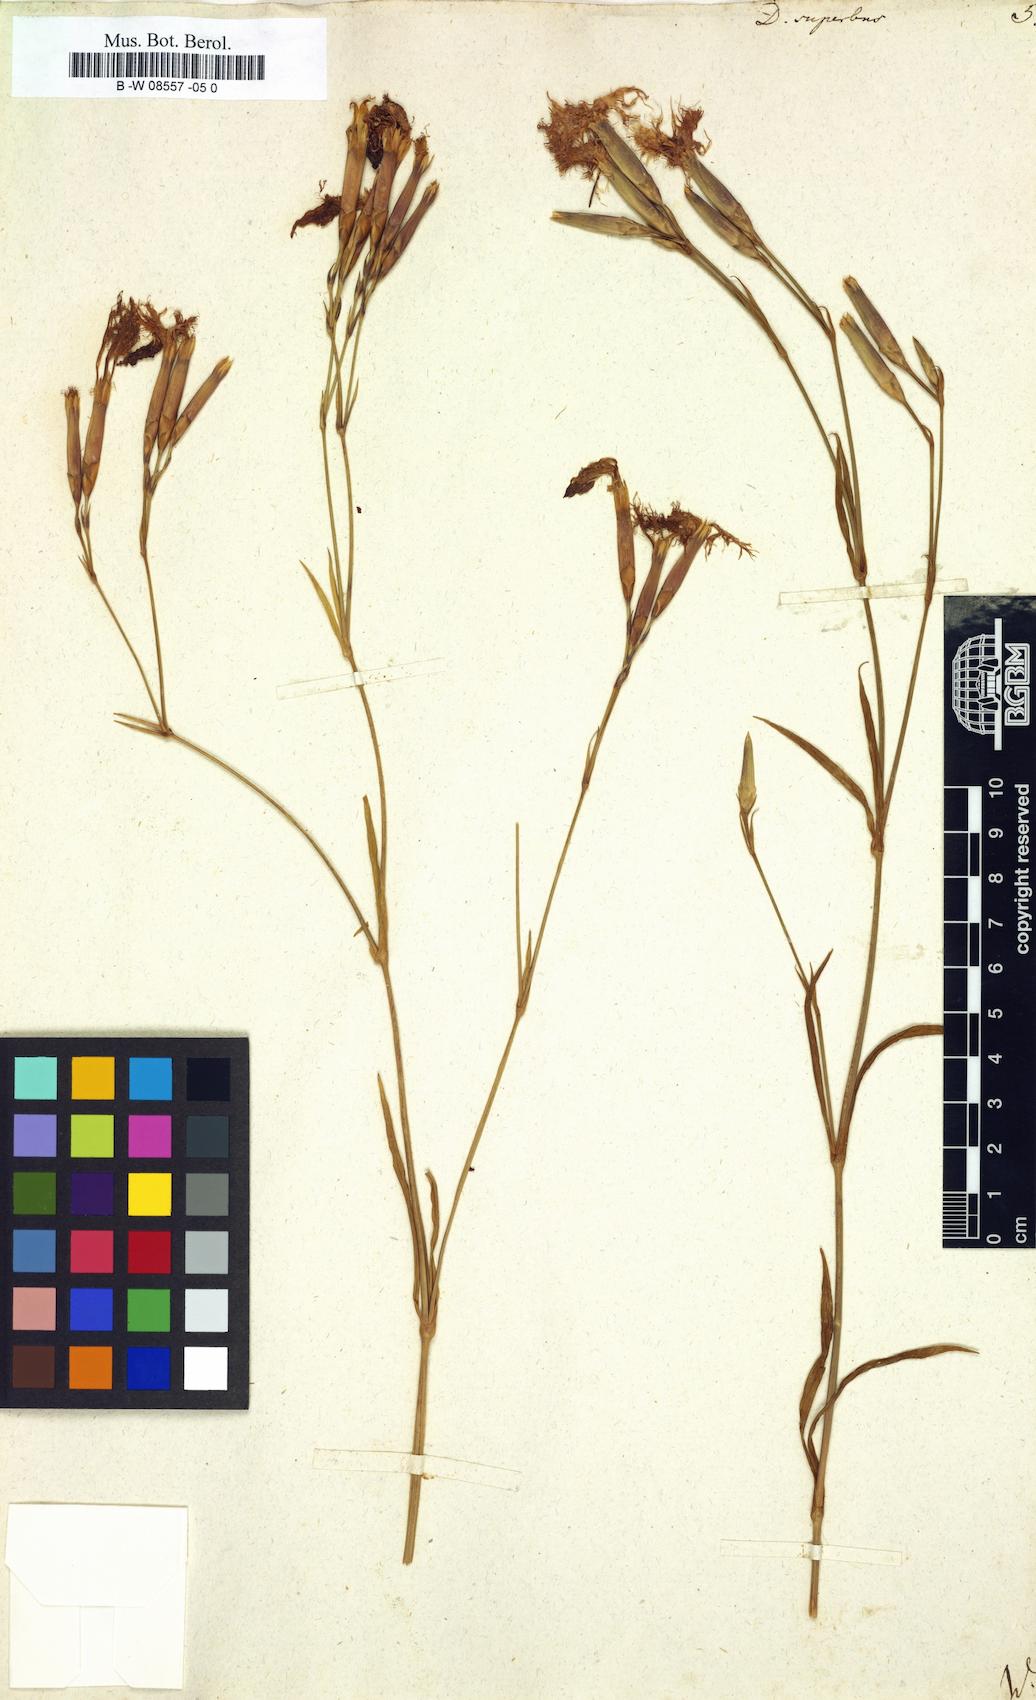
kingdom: Plantae
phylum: Tracheophyta
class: Magnoliopsida
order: Caryophyllales
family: Caryophyllaceae
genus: Dianthus
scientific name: Dianthus superbus
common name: Fringed pink
